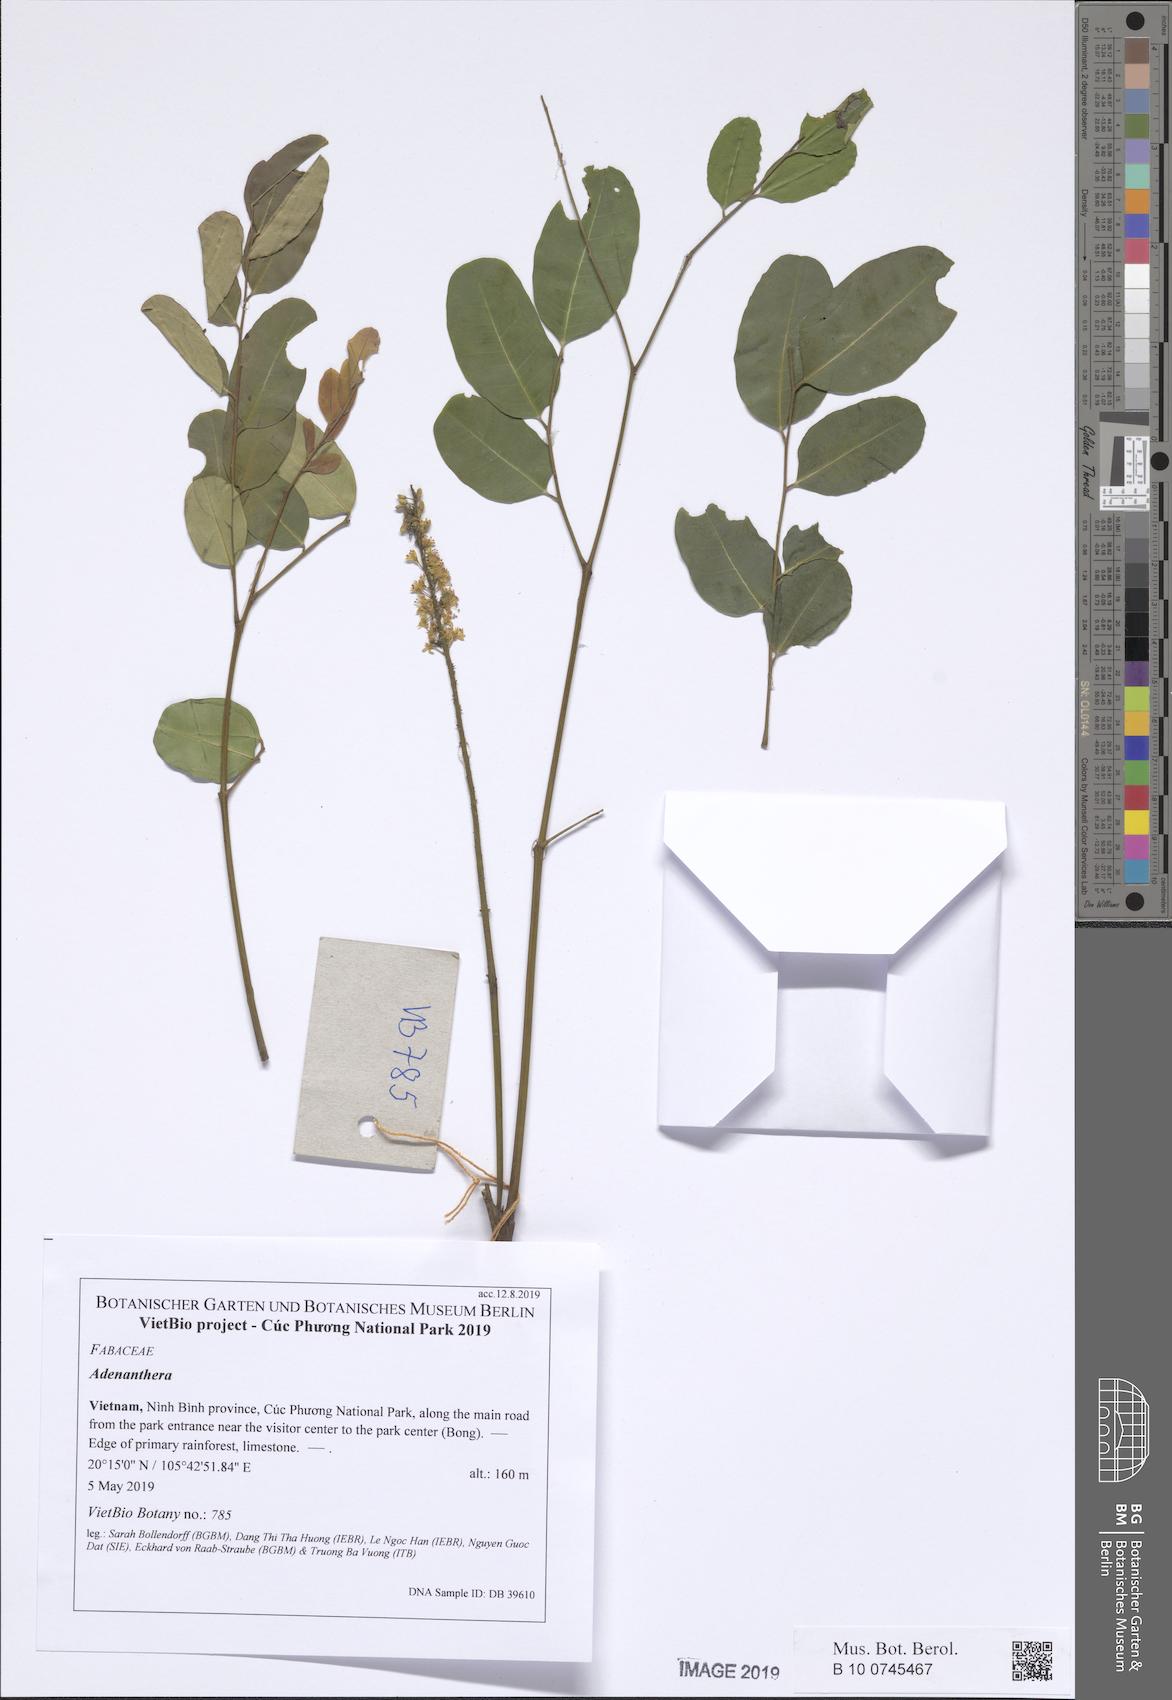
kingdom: Plantae
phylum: Tracheophyta
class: Magnoliopsida
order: Fabales
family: Fabaceae
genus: Adenanthera
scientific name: Adenanthera pavonina
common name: Red beadtree
